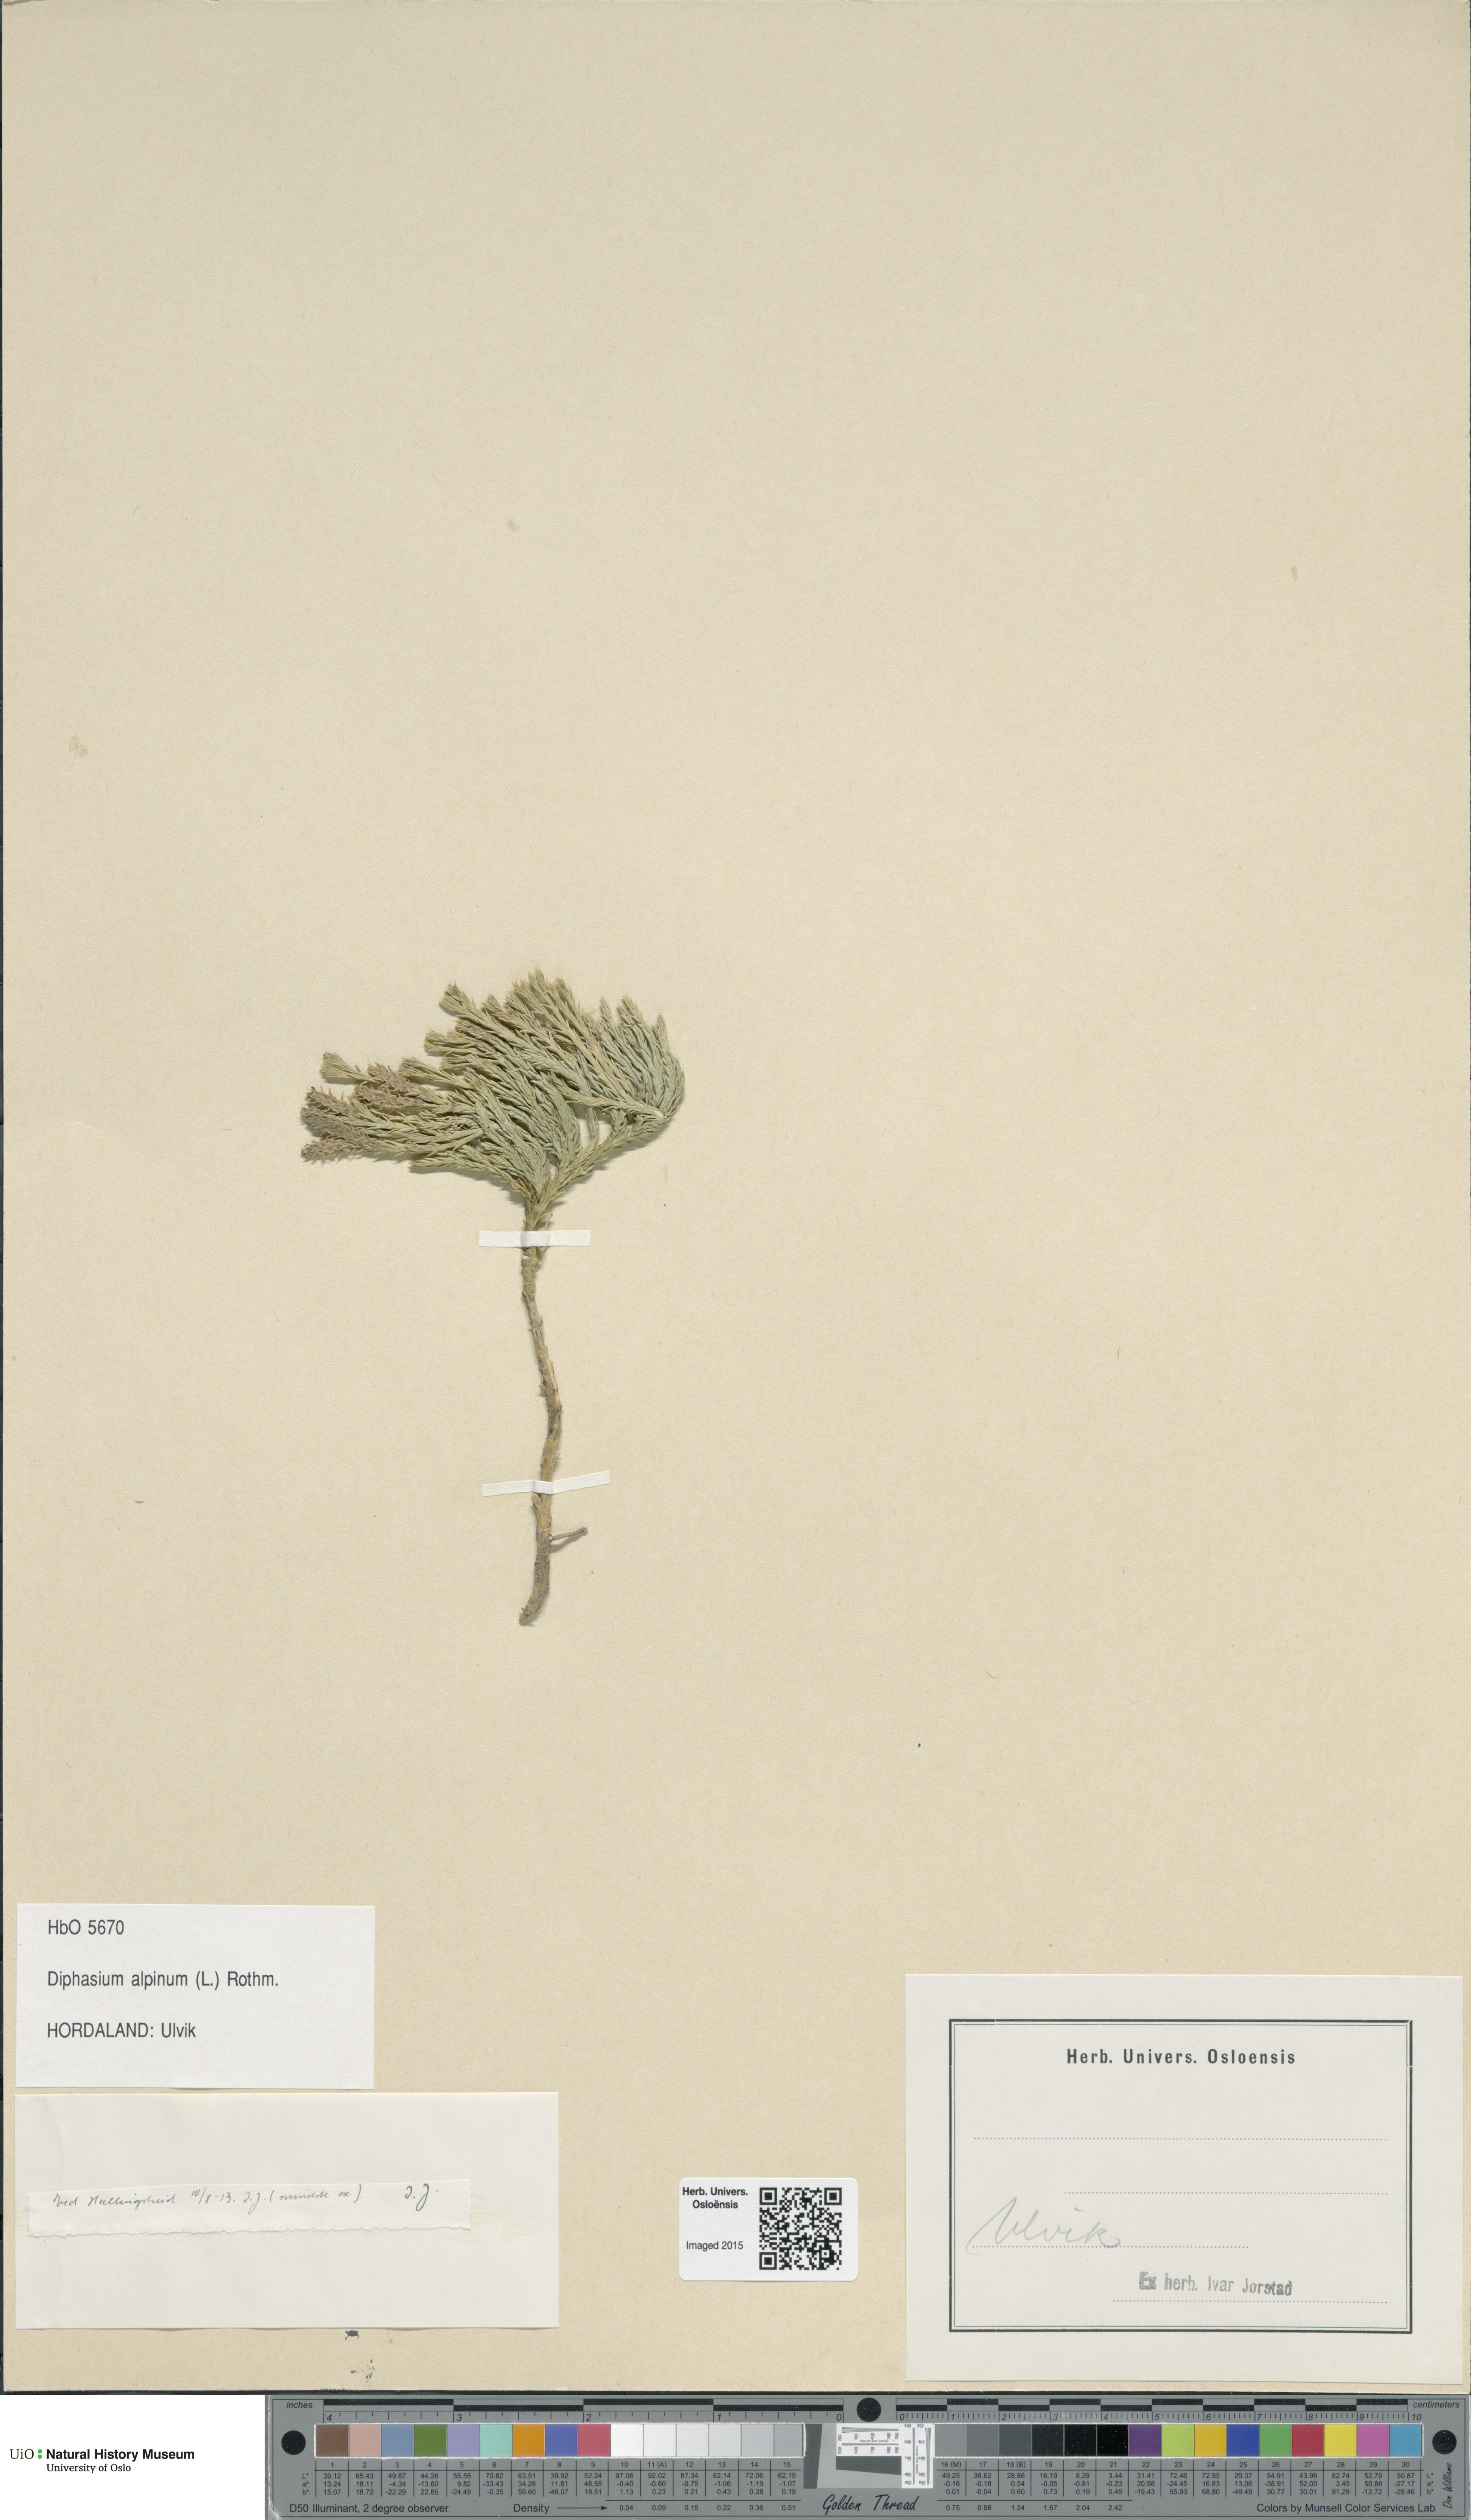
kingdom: Plantae
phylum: Tracheophyta
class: Lycopodiopsida
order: Lycopodiales
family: Lycopodiaceae
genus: Diphasiastrum
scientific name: Diphasiastrum alpinum
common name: Alpine clubmoss
